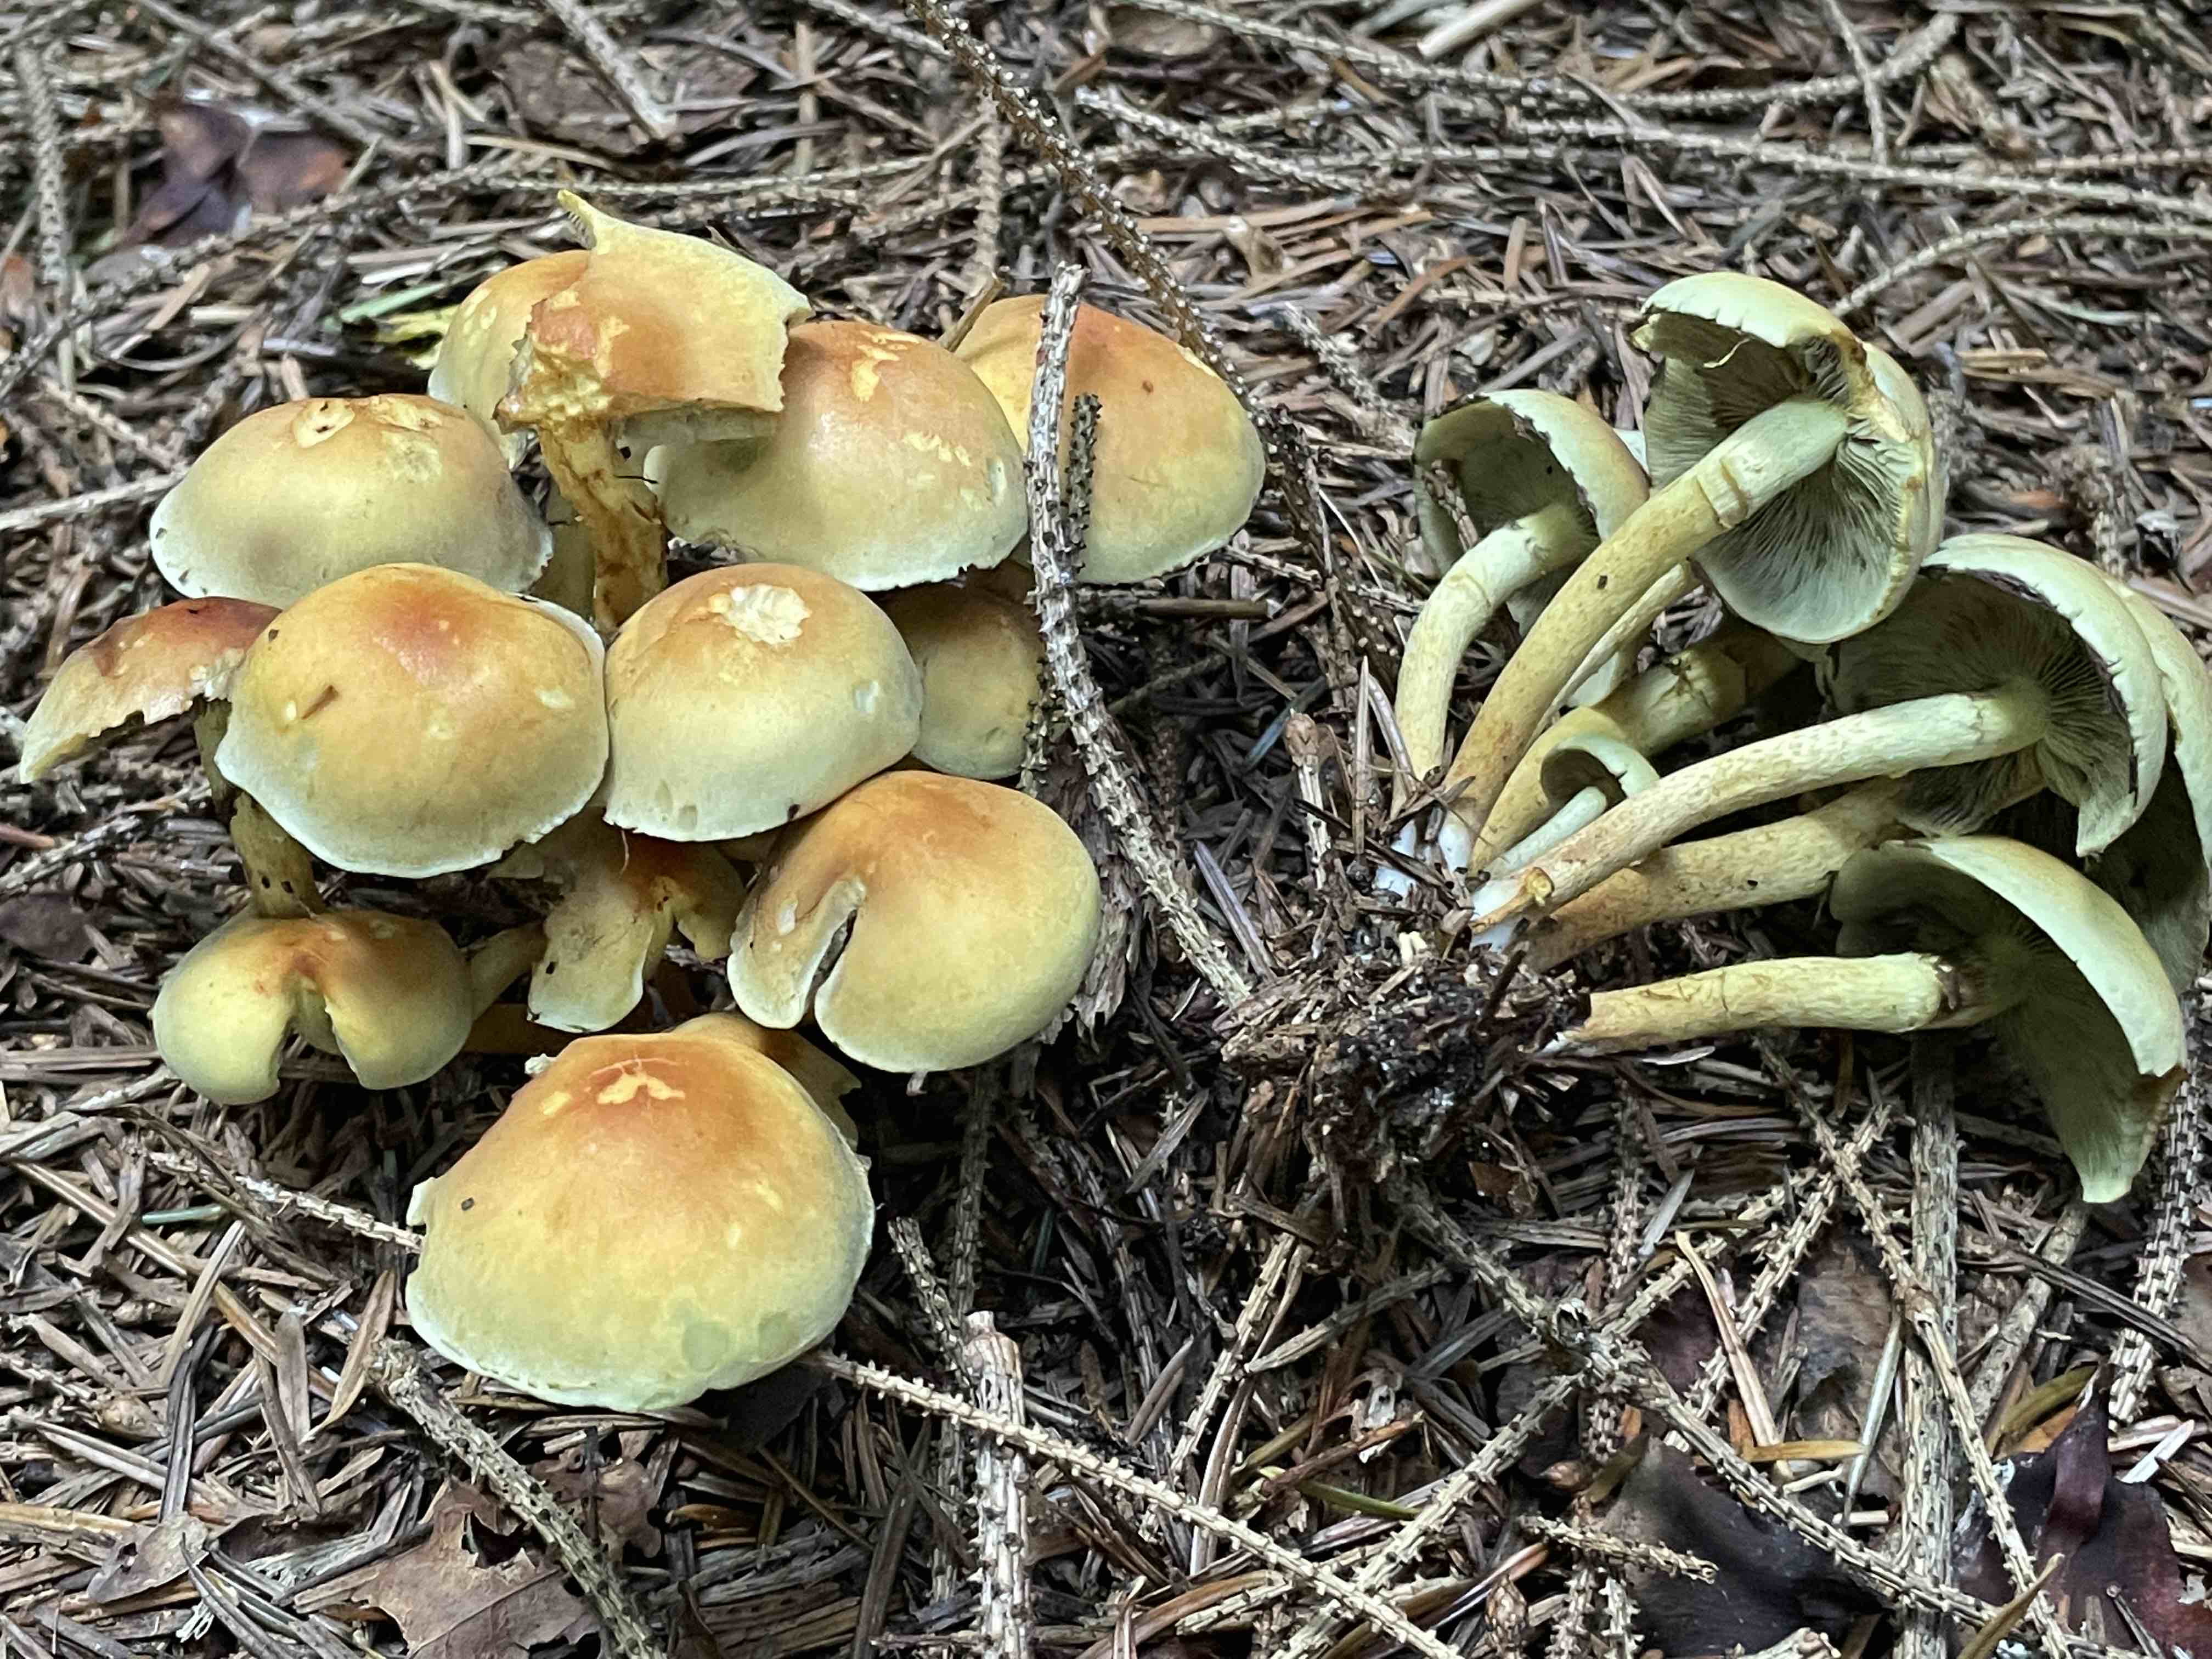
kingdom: Fungi
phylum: Basidiomycota
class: Agaricomycetes
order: Agaricales
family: Strophariaceae
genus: Hypholoma
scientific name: Hypholoma fasciculare
